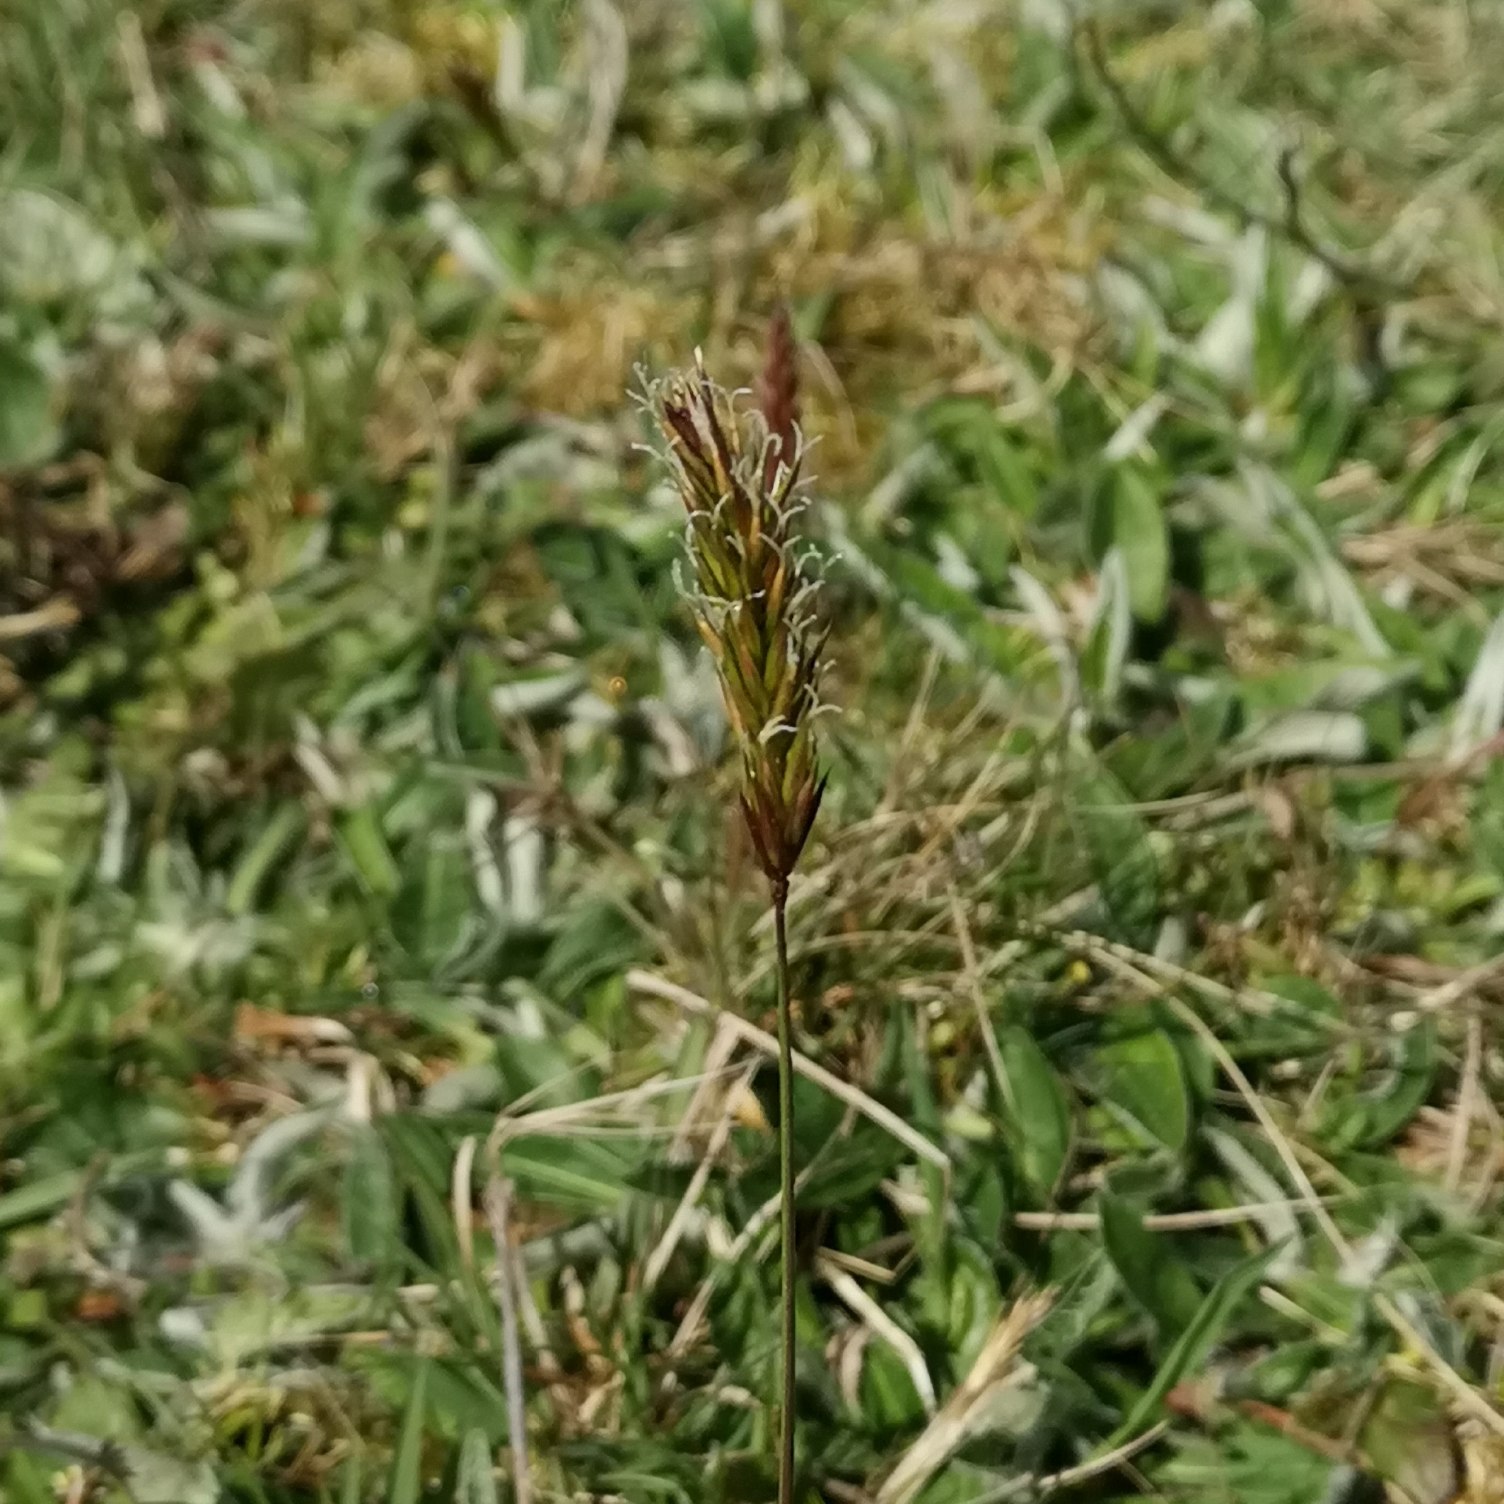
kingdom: Plantae
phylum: Tracheophyta
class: Liliopsida
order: Poales
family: Poaceae
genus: Anthoxanthum
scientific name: Anthoxanthum odoratum
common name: Vellugtende gulaks
